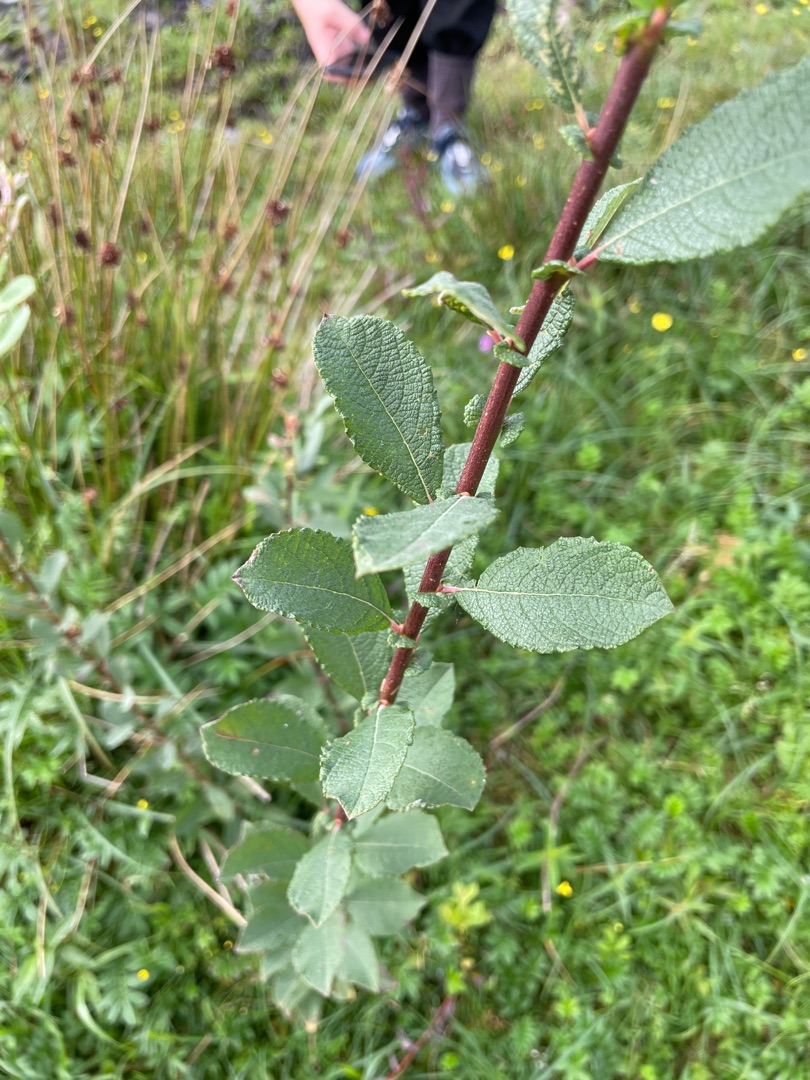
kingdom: Plantae
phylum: Tracheophyta
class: Magnoliopsida
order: Malpighiales
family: Salicaceae
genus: Salix
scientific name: Salix aurita
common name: Øret pil
